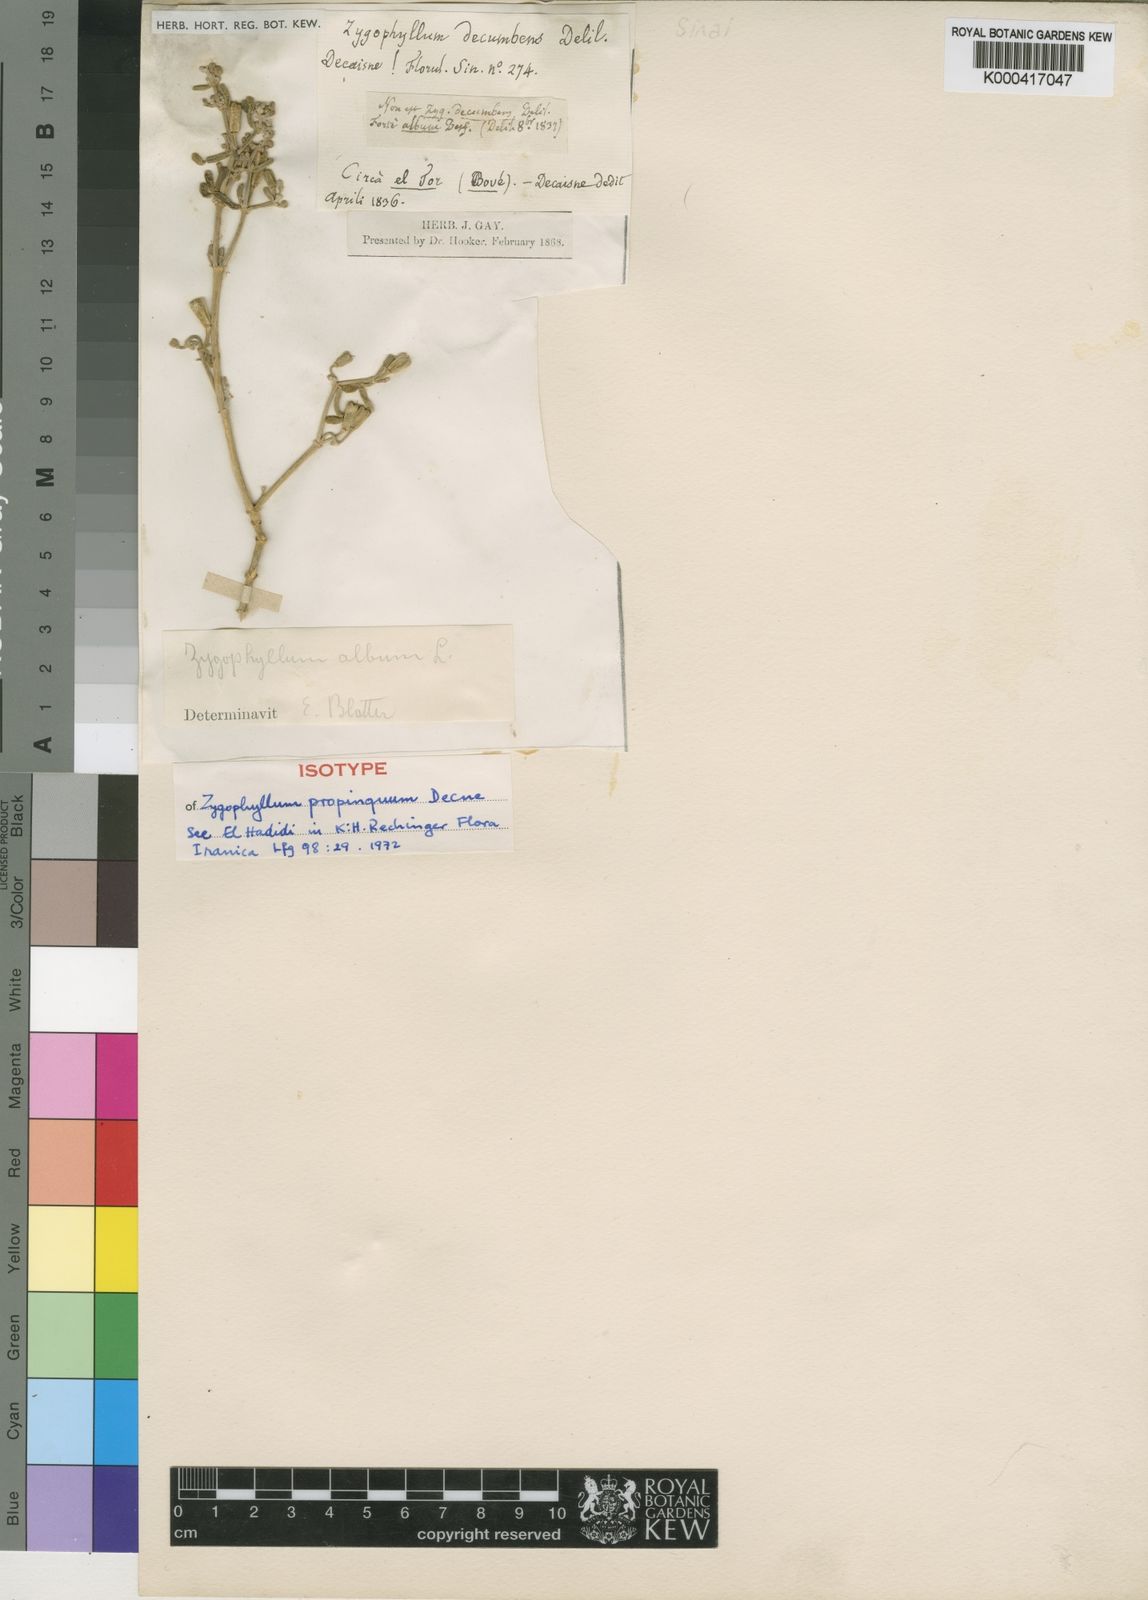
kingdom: Plantae
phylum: Tracheophyta
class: Magnoliopsida
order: Zygophyllales
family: Zygophyllaceae
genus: Tetraena
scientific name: Tetraena
